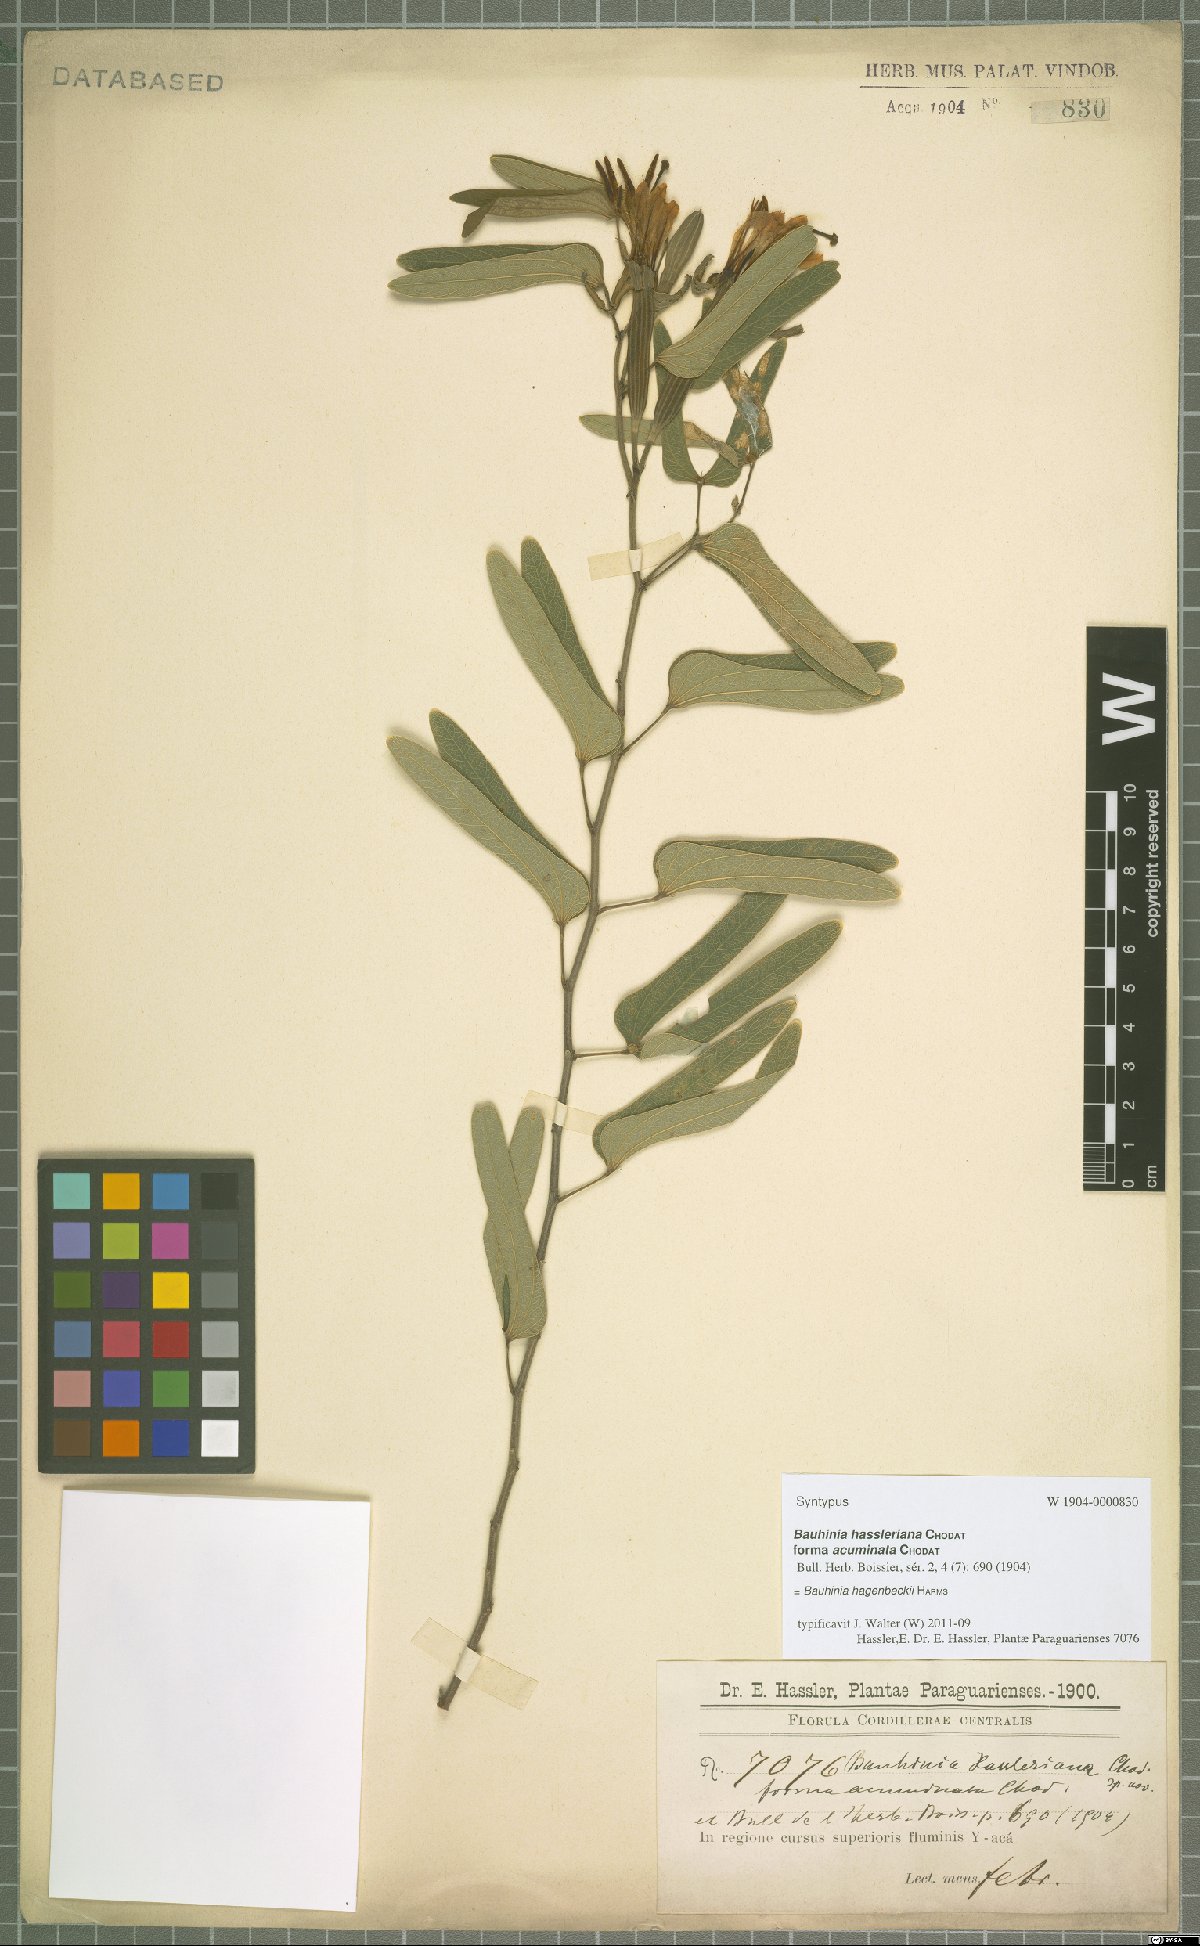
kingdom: Plantae
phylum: Tracheophyta
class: Magnoliopsida
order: Fabales
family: Fabaceae
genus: Bauhinia
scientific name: Bauhinia hagenbeckii
